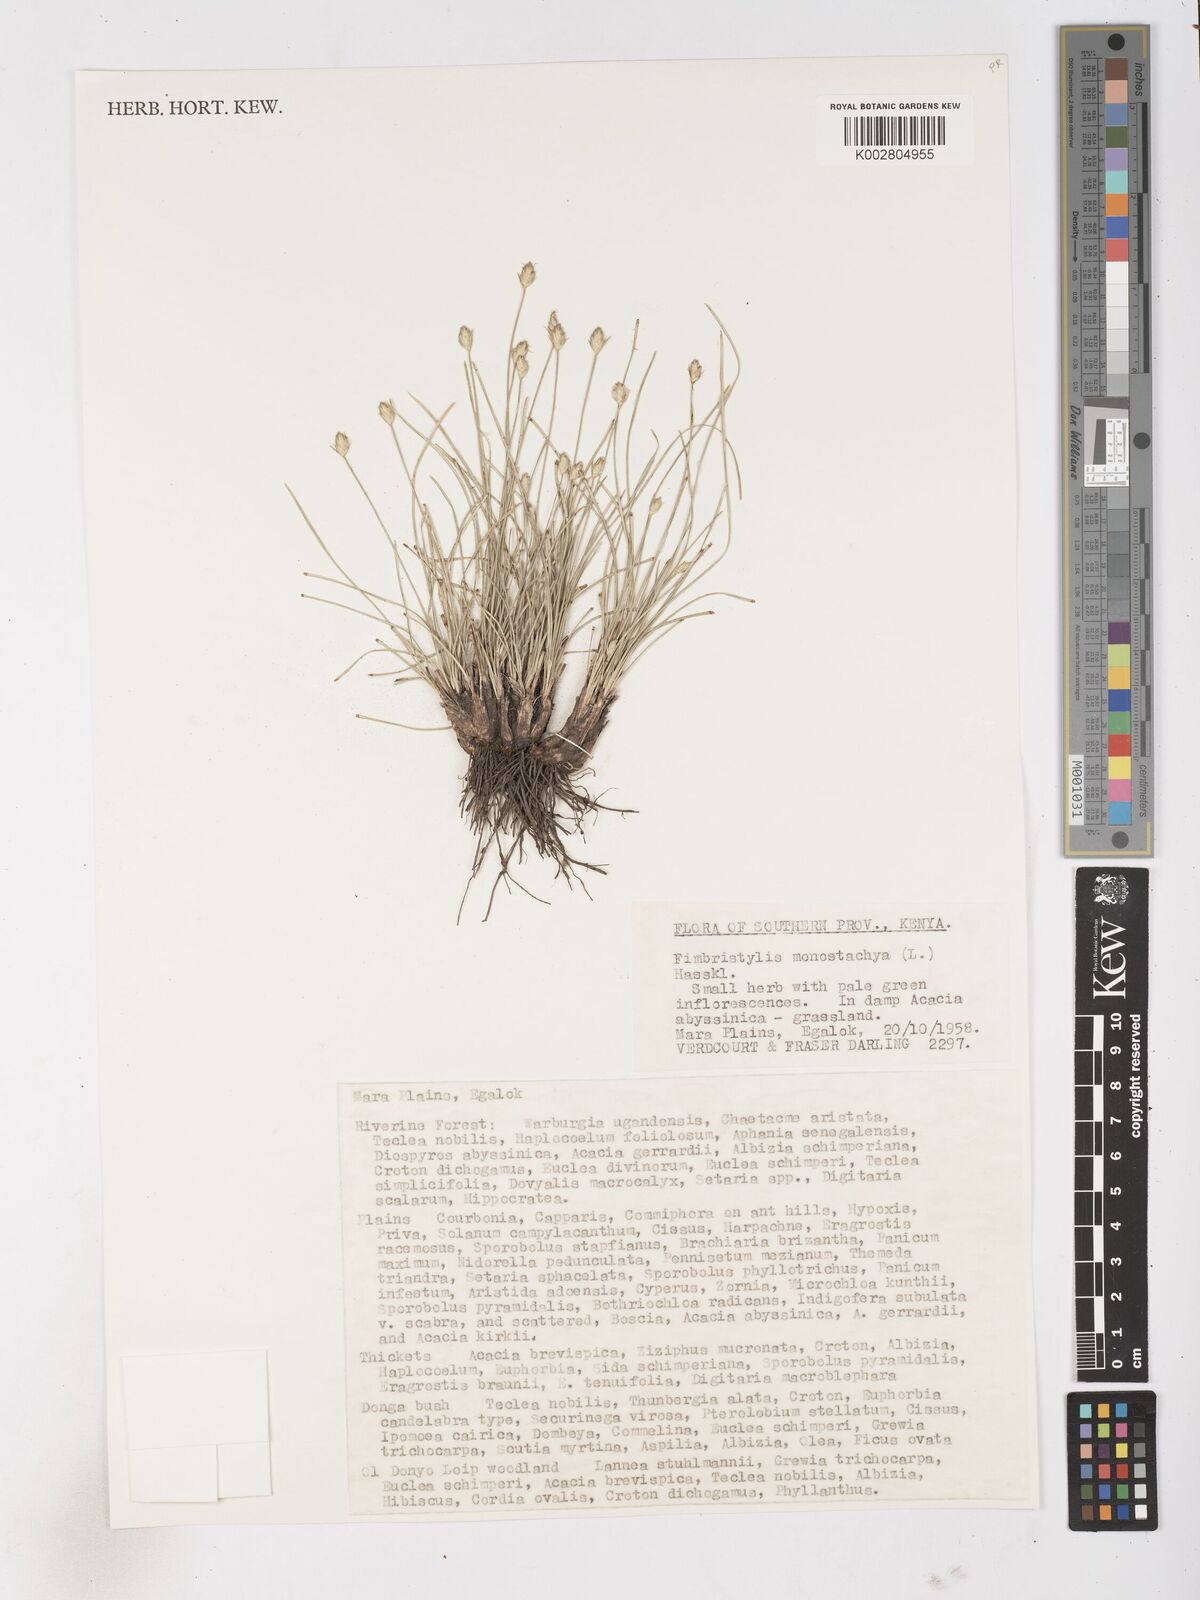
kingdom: Plantae
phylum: Tracheophyta
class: Liliopsida
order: Poales
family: Cyperaceae
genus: Abildgaardia
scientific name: Abildgaardia ovata
